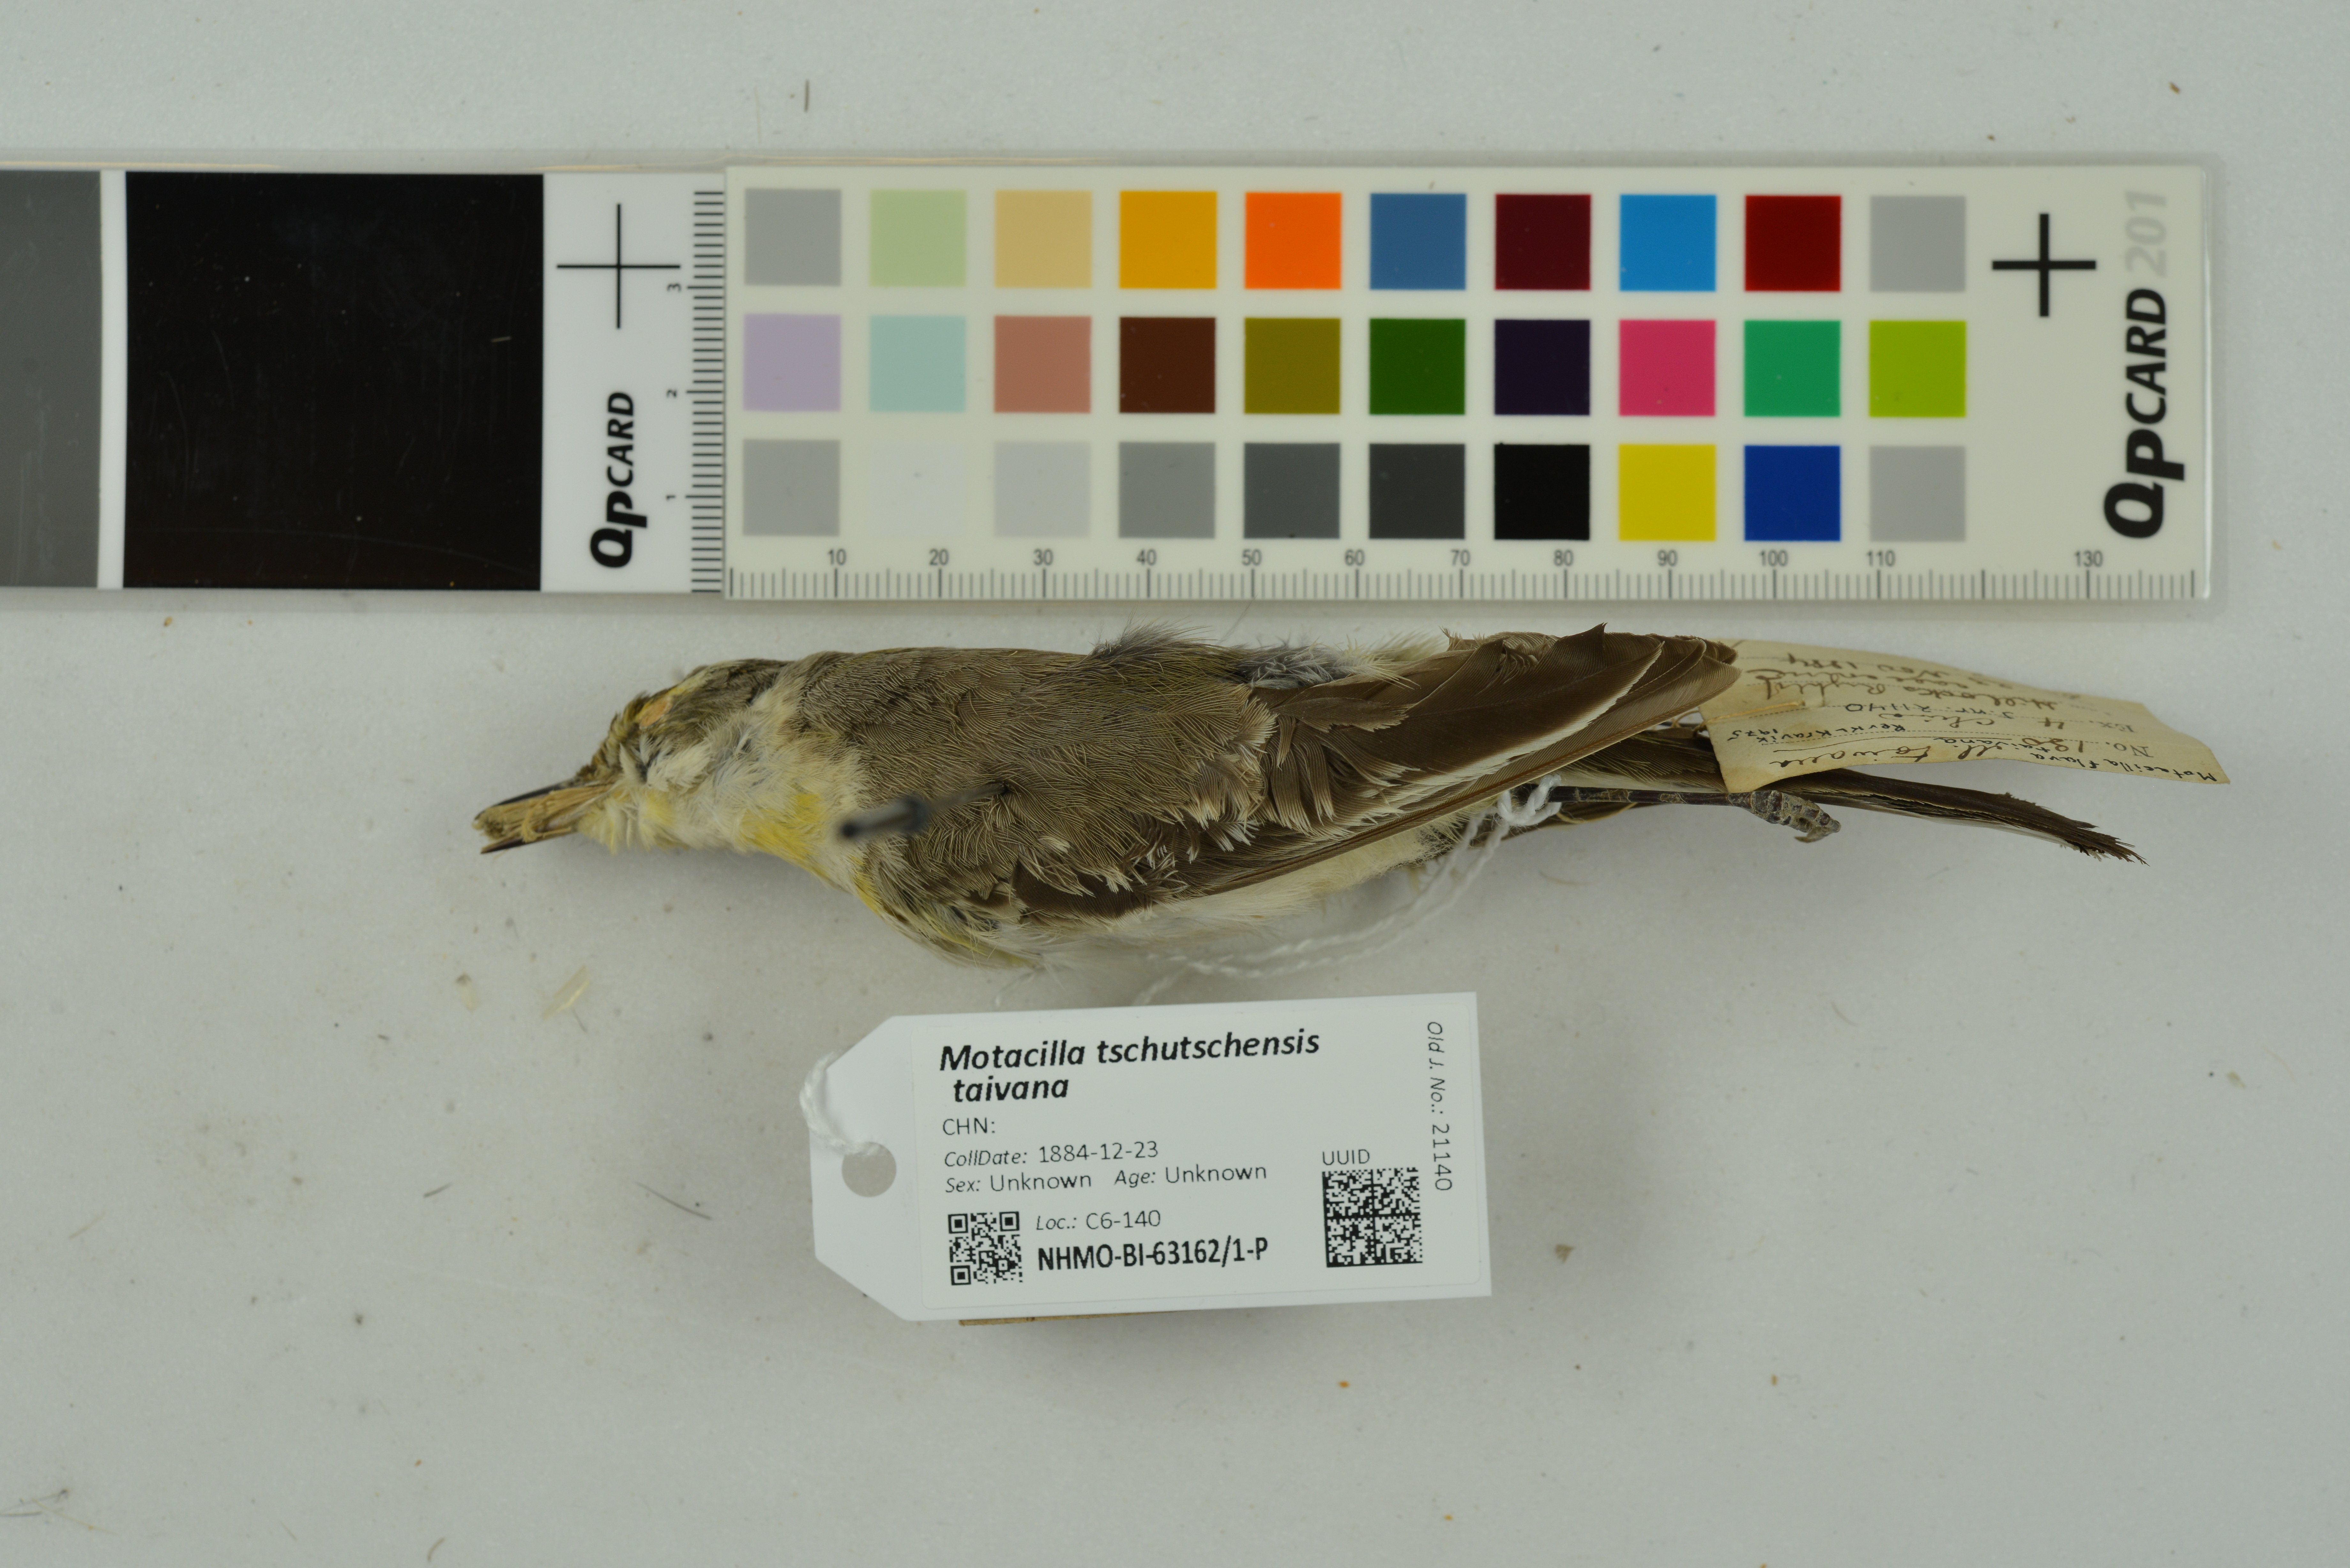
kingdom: Animalia
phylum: Chordata
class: Aves
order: Passeriformes
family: Motacillidae
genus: Motacilla
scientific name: Motacilla tschutschensis
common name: Eastern yellow wagtail
